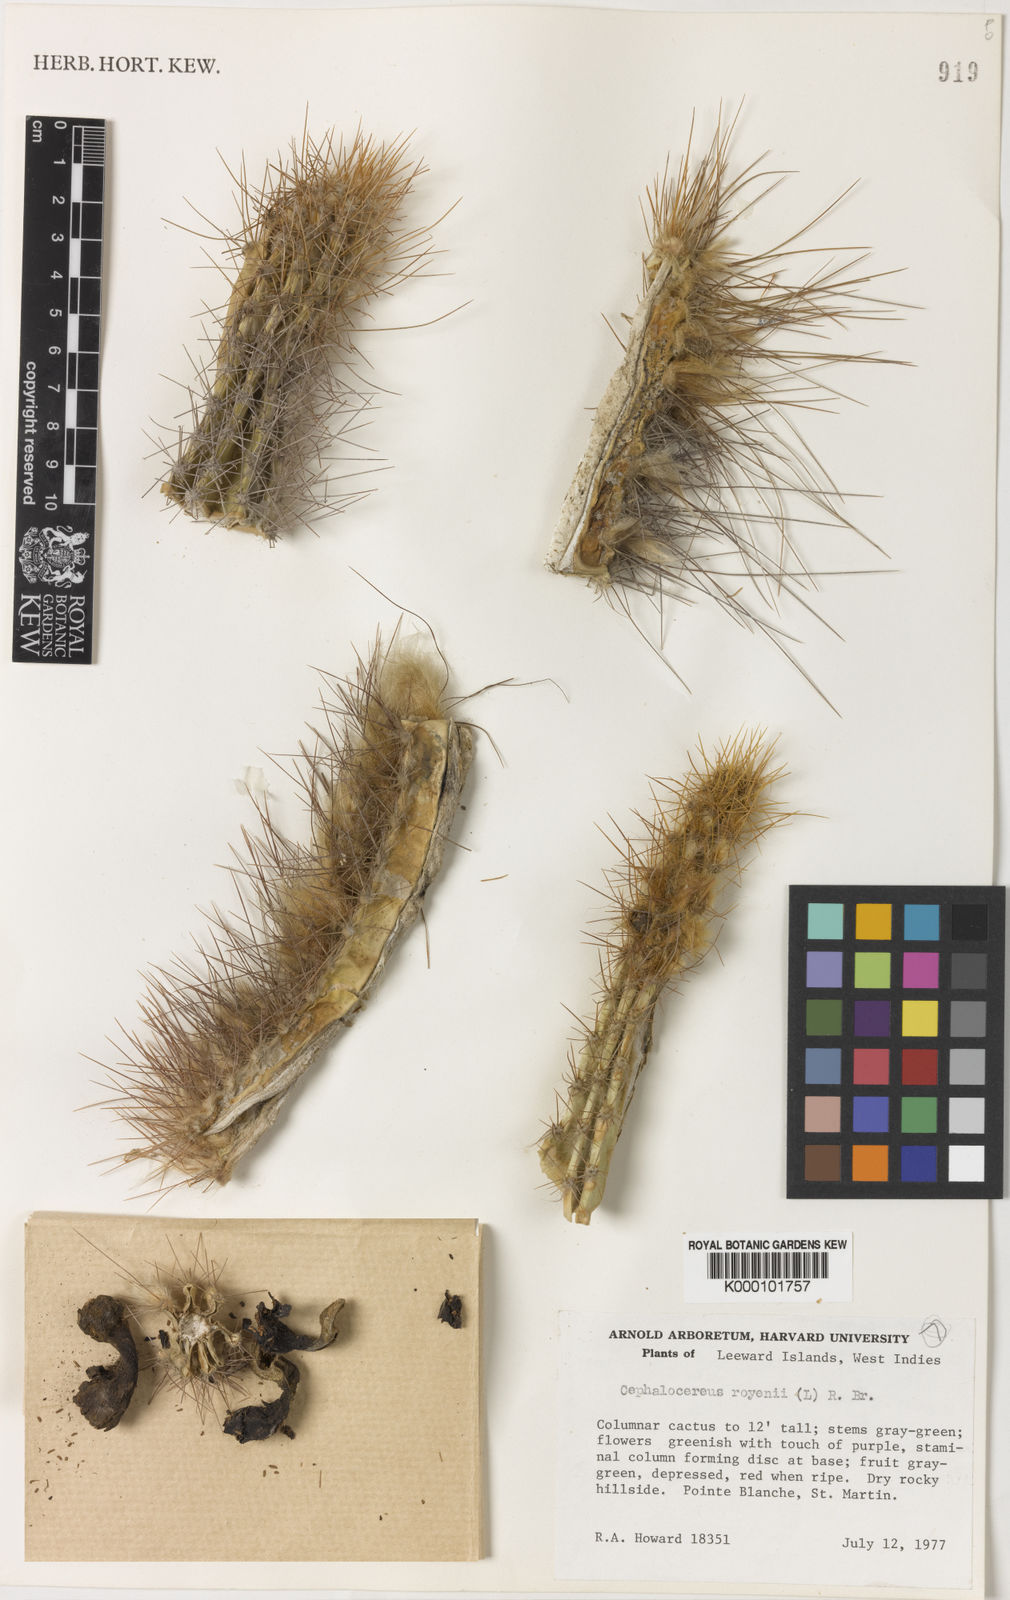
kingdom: Plantae
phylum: Tracheophyta
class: Magnoliopsida
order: Caryophyllales
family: Cactaceae
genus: Pilosocereus
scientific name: Pilosocereus polygonus
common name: Key tree cactus
